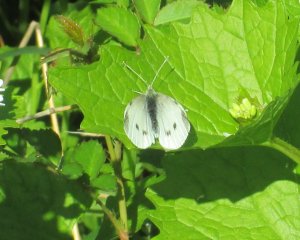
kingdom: Animalia
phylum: Arthropoda
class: Insecta
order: Lepidoptera
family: Pieridae
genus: Pieris
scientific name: Pieris rapae
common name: Cabbage White
